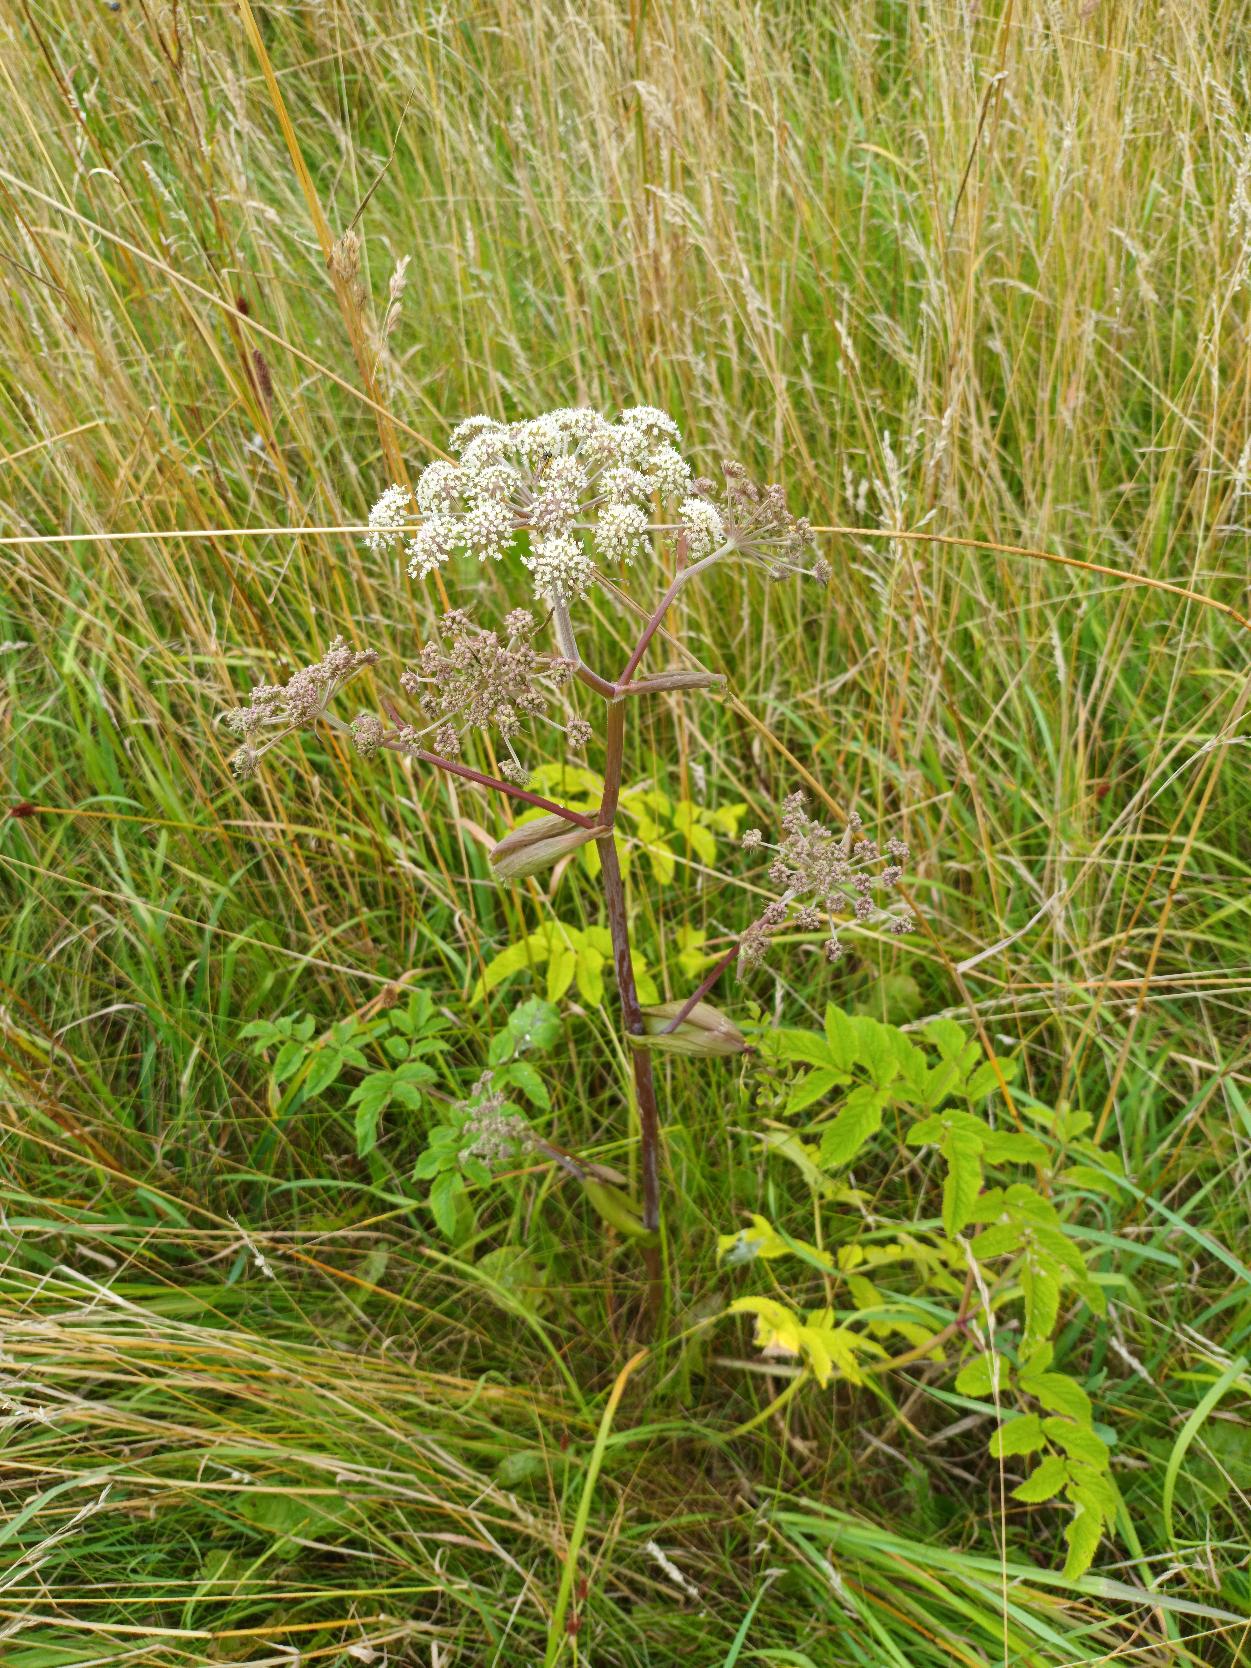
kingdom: Plantae
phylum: Tracheophyta
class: Magnoliopsida
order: Apiales
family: Apiaceae
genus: Angelica
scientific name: Angelica sylvestris
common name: Angelik
